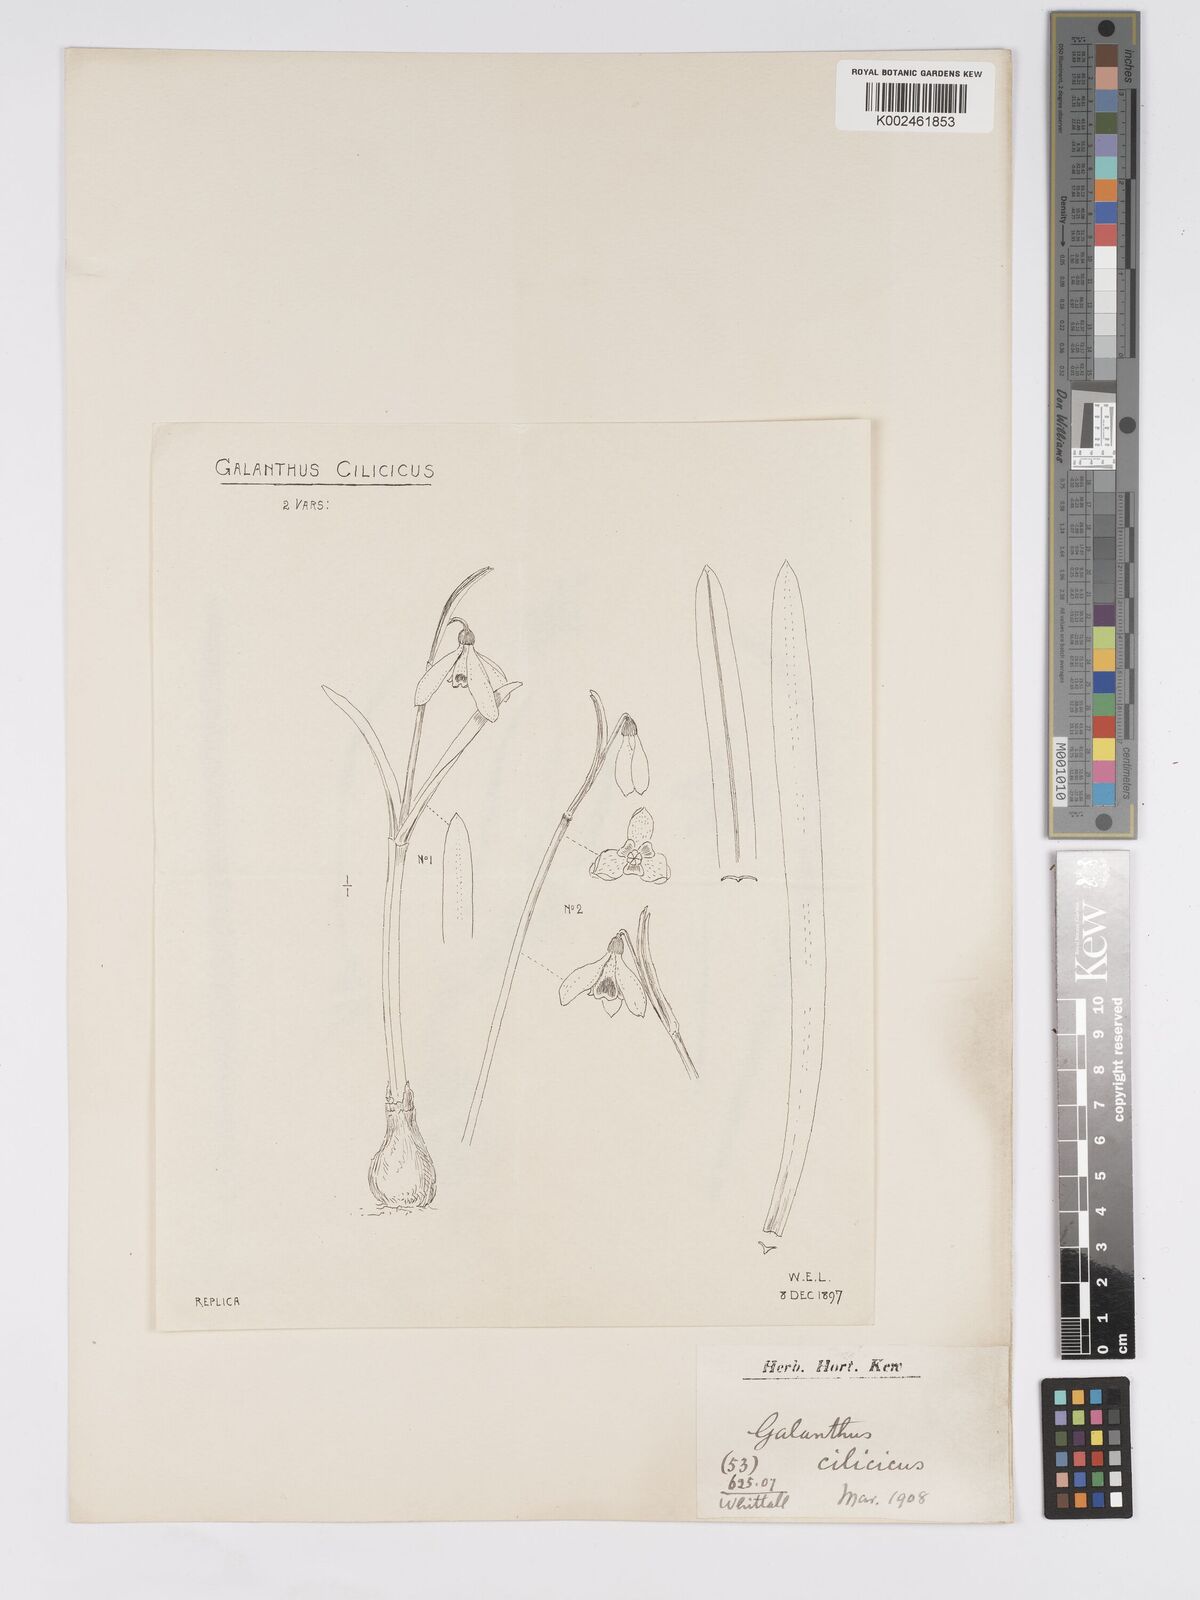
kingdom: Plantae
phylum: Tracheophyta
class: Liliopsida
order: Asparagales
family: Amaryllidaceae
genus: Galanthus
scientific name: Galanthus cilicicus
